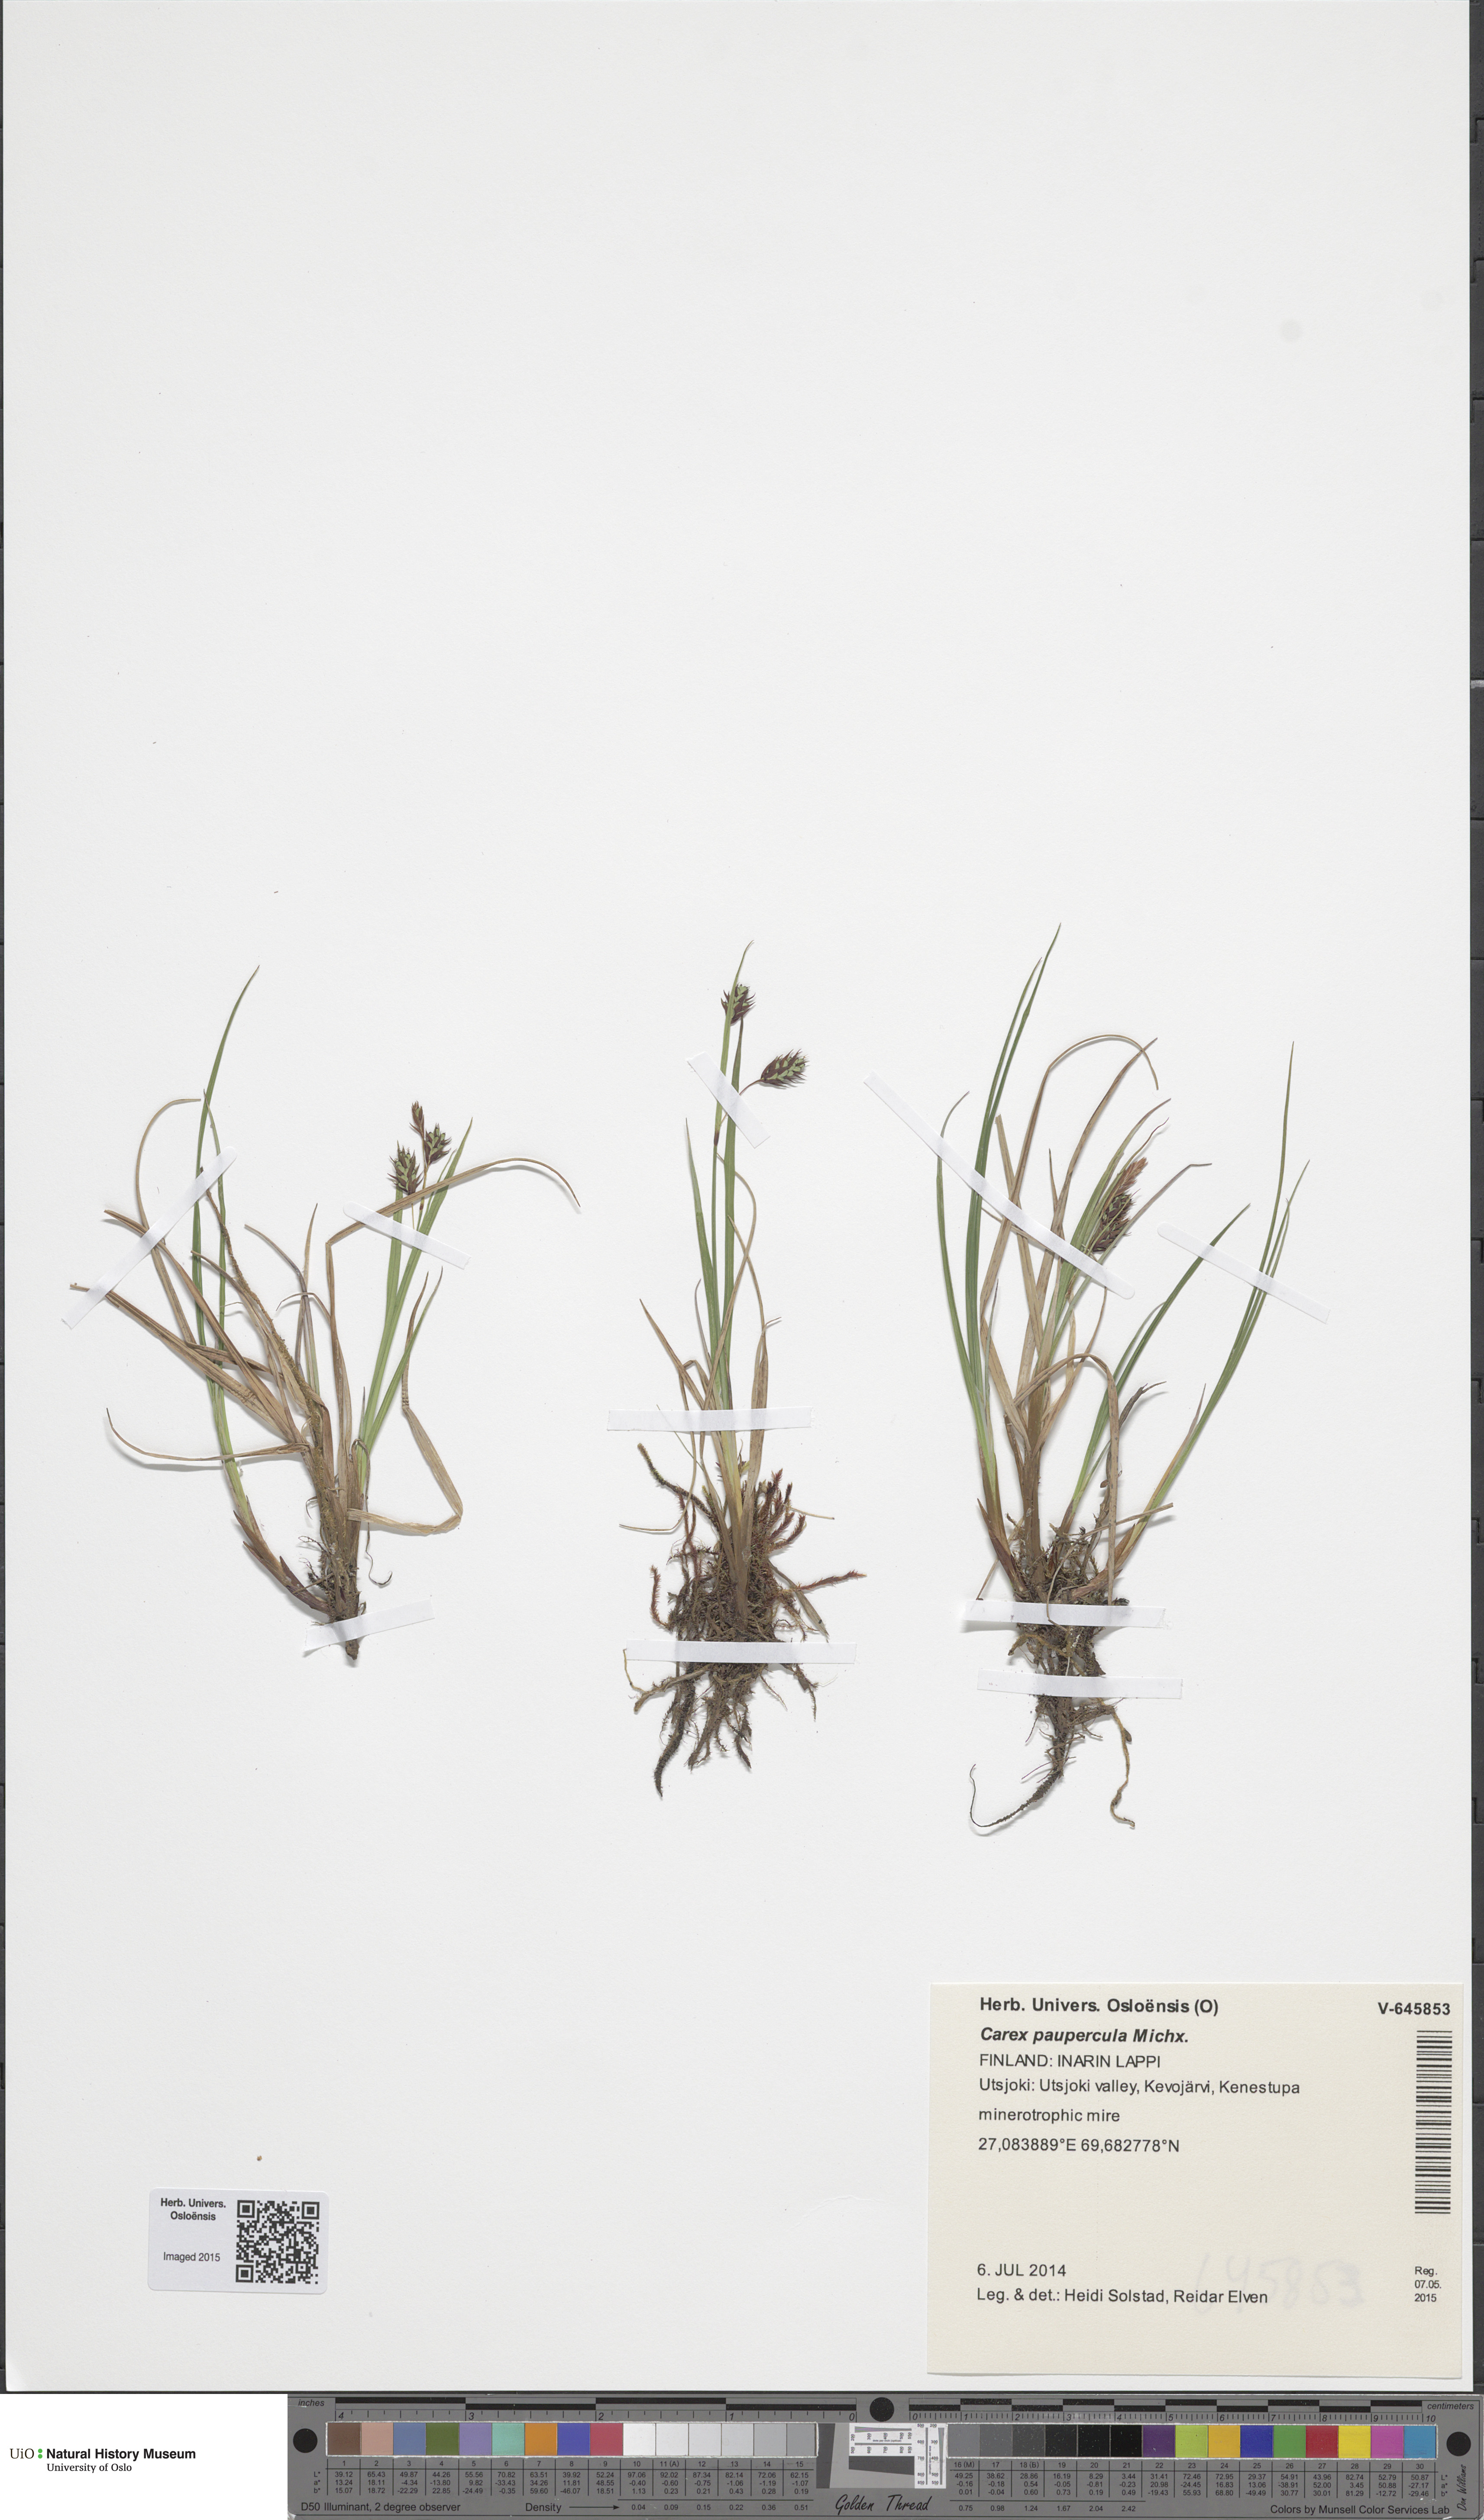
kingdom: Plantae
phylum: Tracheophyta
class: Liliopsida
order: Poales
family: Cyperaceae
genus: Carex
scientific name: Carex magellanica
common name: Bog sedge
